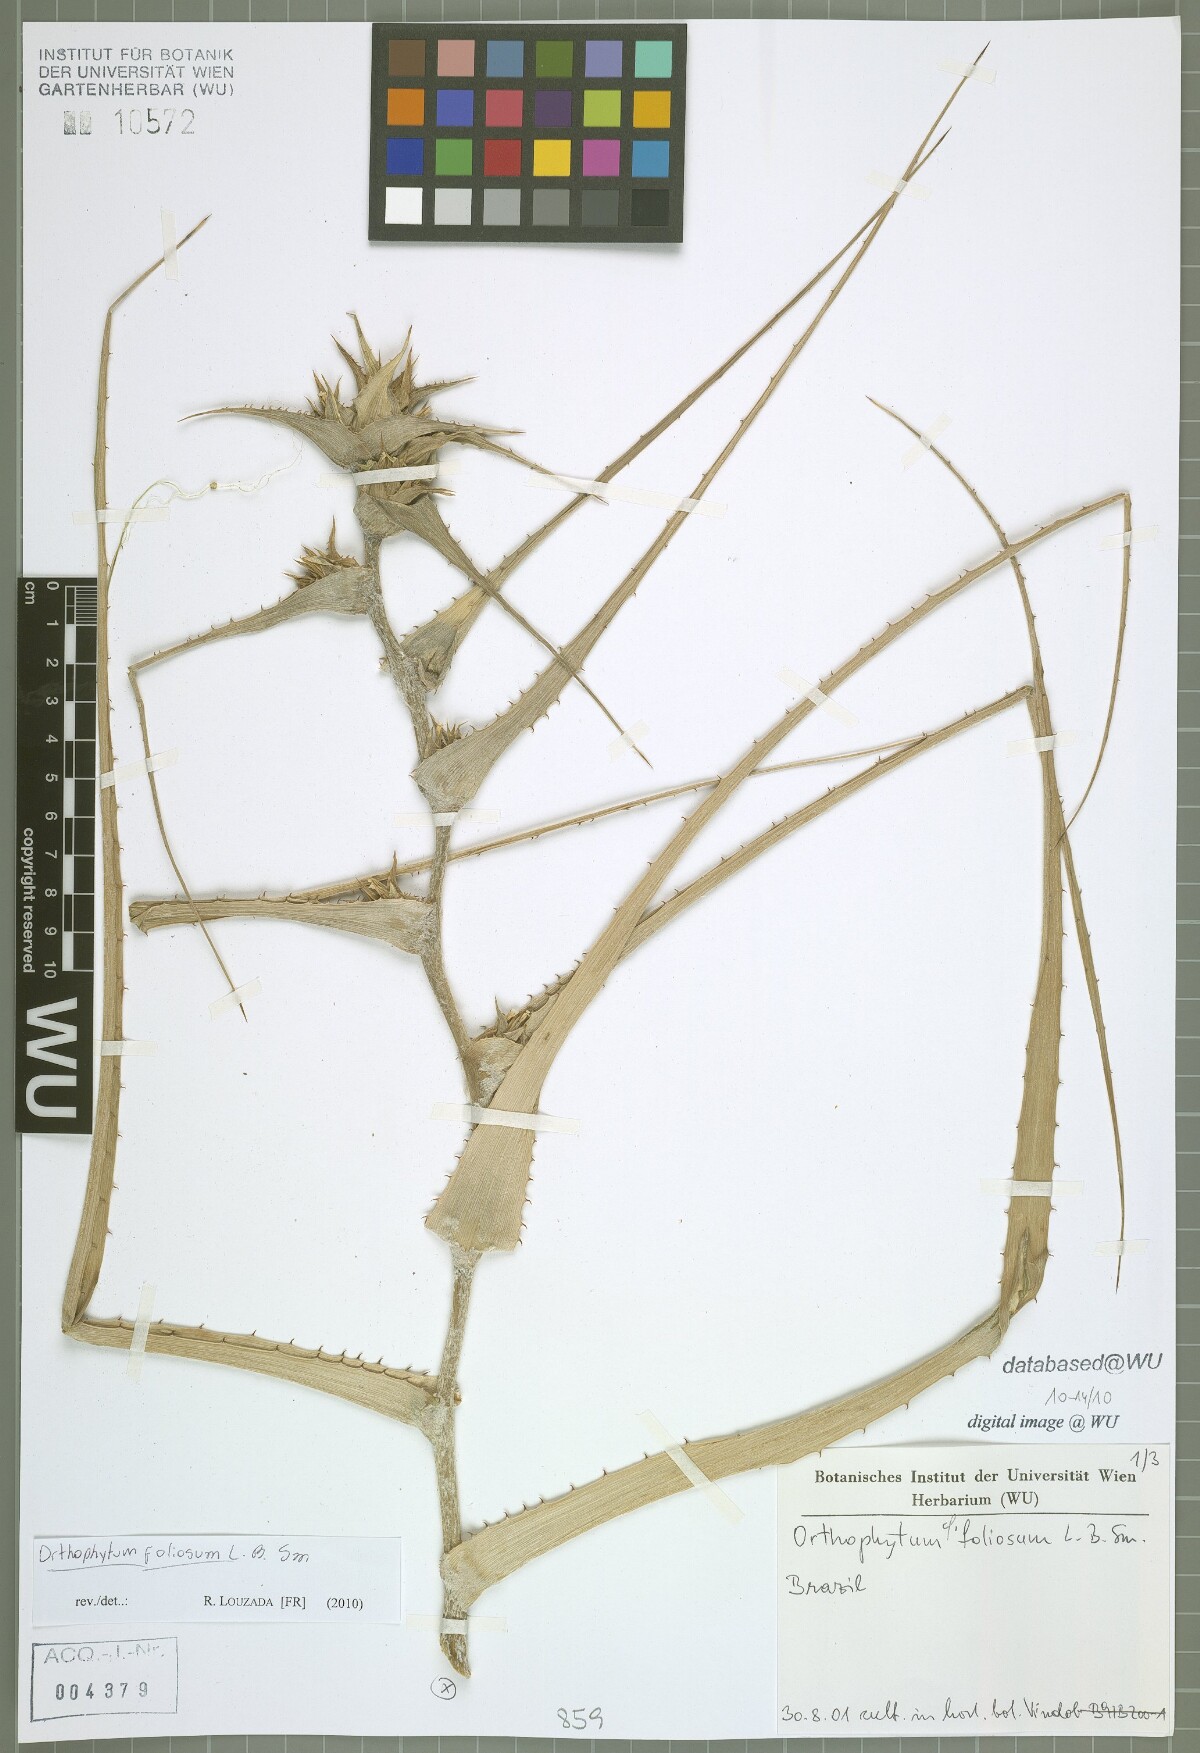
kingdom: Plantae
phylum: Tracheophyta
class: Liliopsida
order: Poales
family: Bromeliaceae
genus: Orthophytum
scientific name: Orthophytum foliosum
